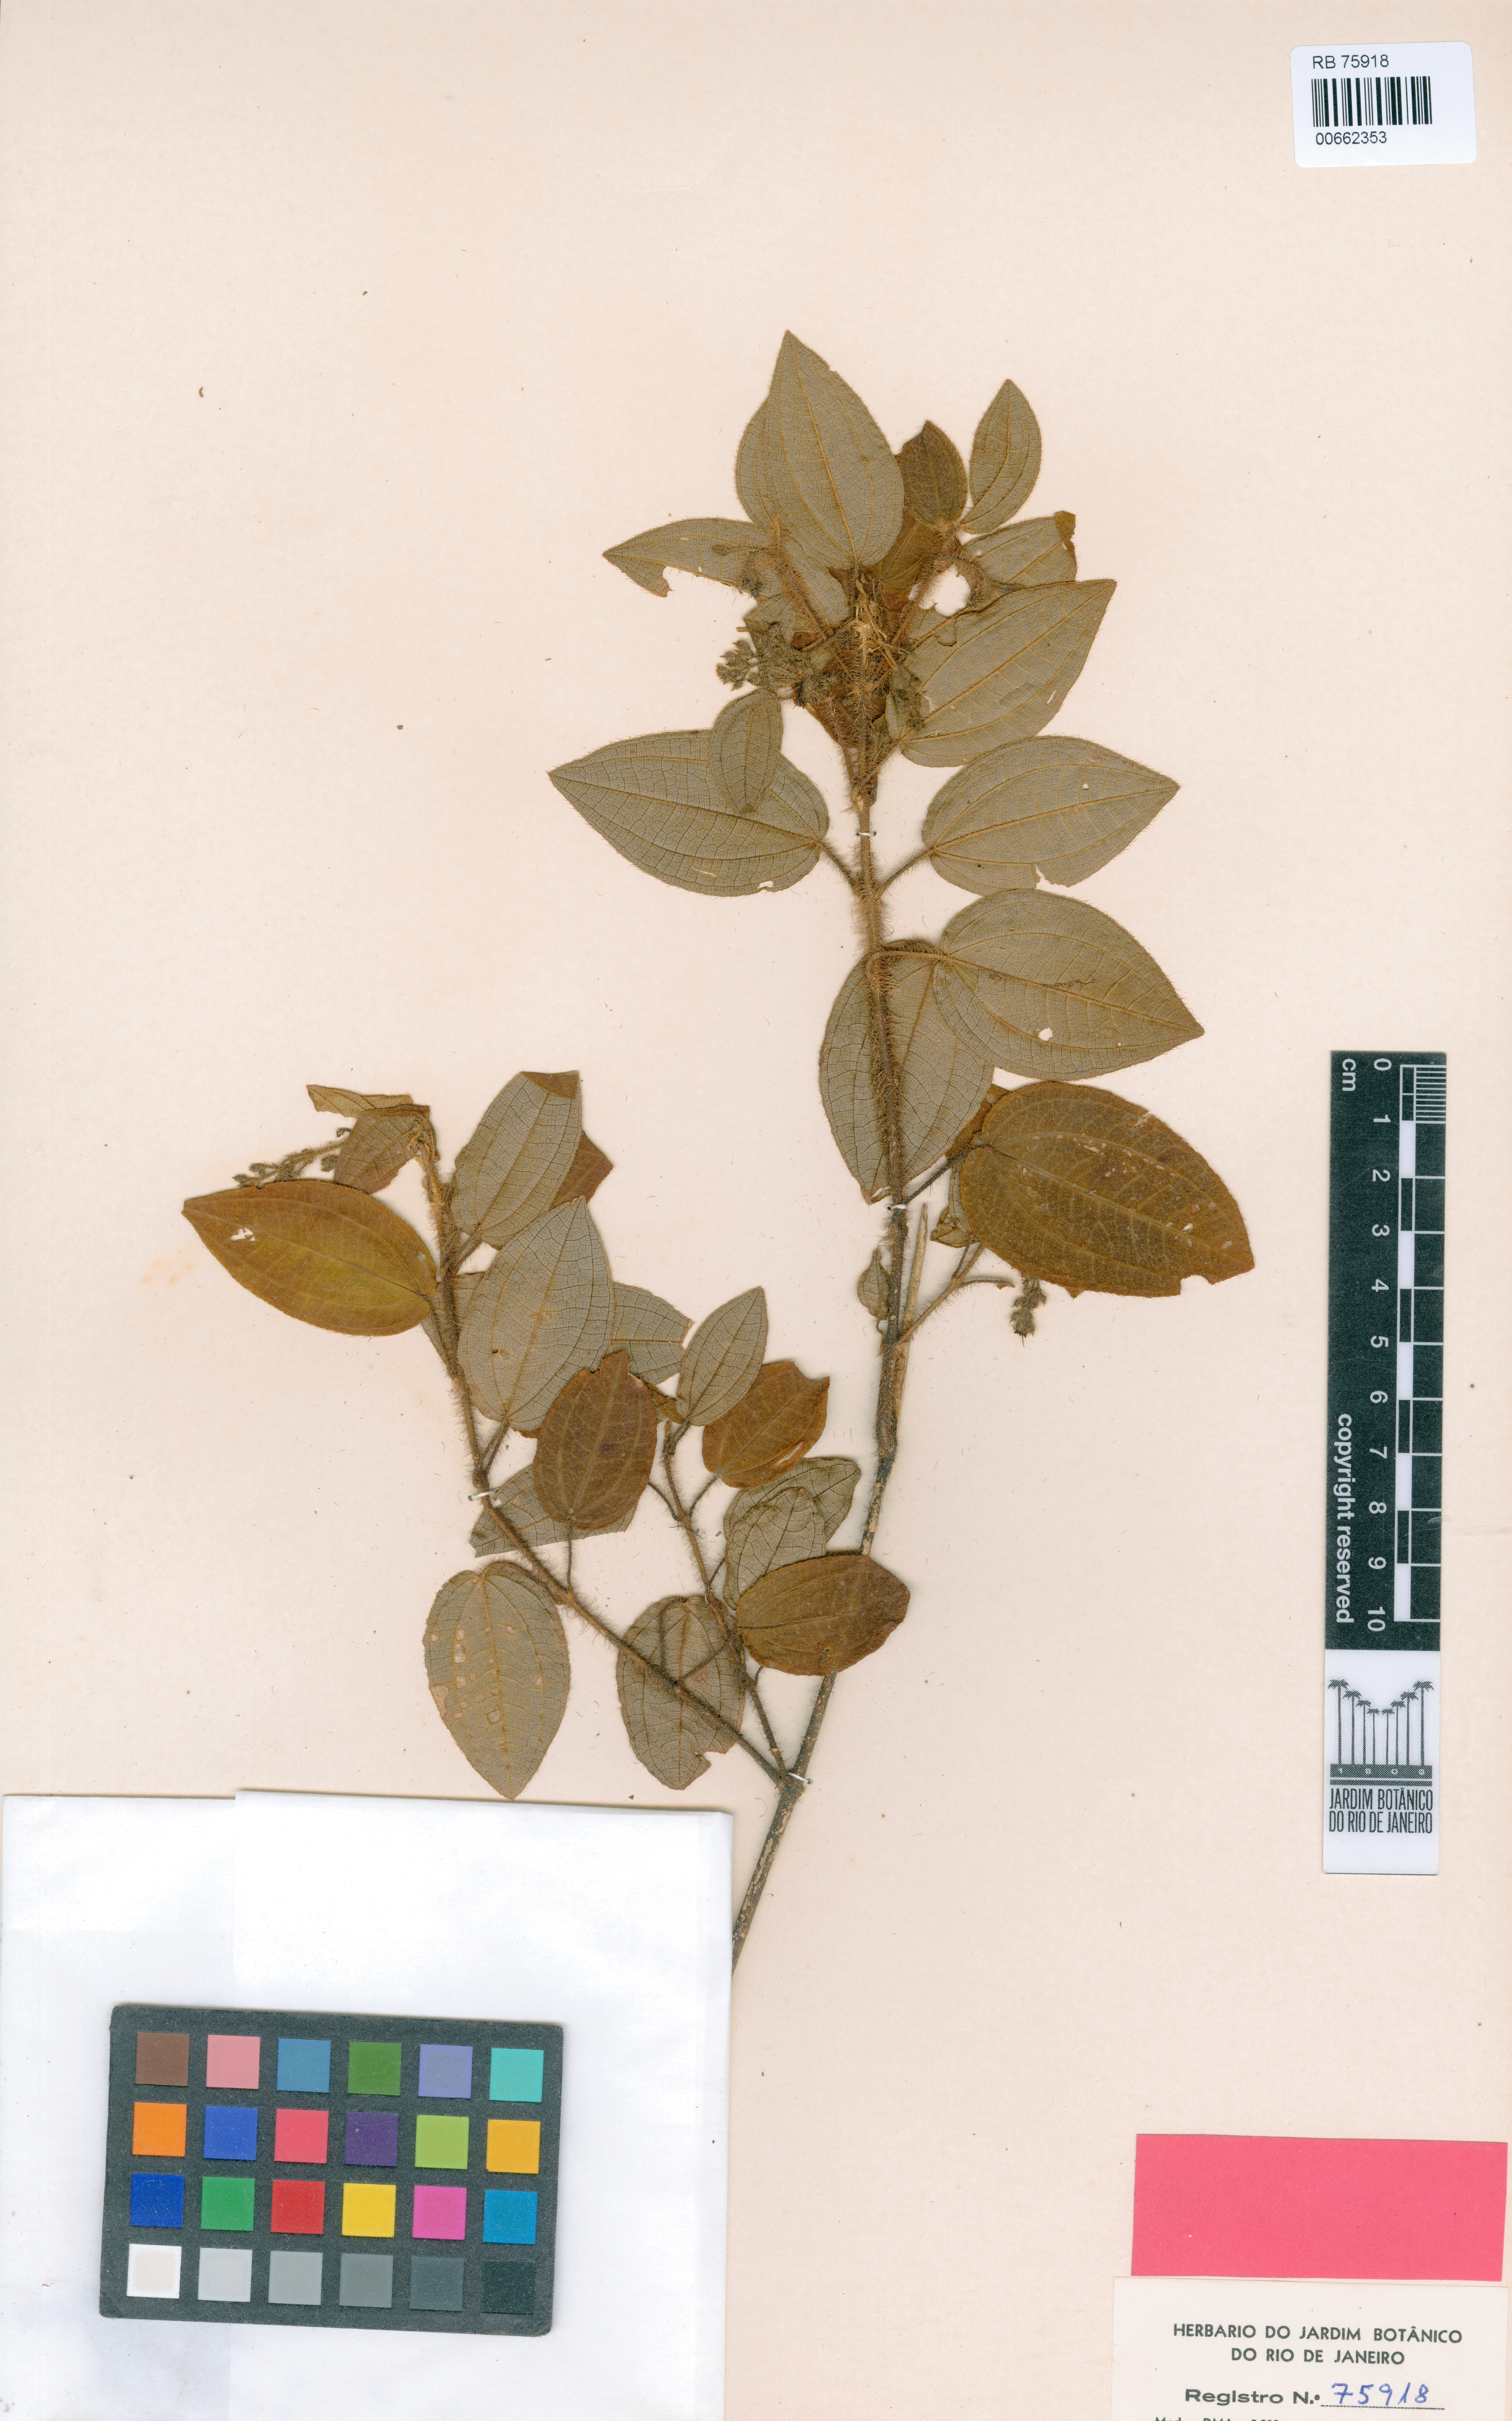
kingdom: Plantae
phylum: Tracheophyta
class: Magnoliopsida
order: Myrtales
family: Melastomataceae
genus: Miconia
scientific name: Miconia leapallida
